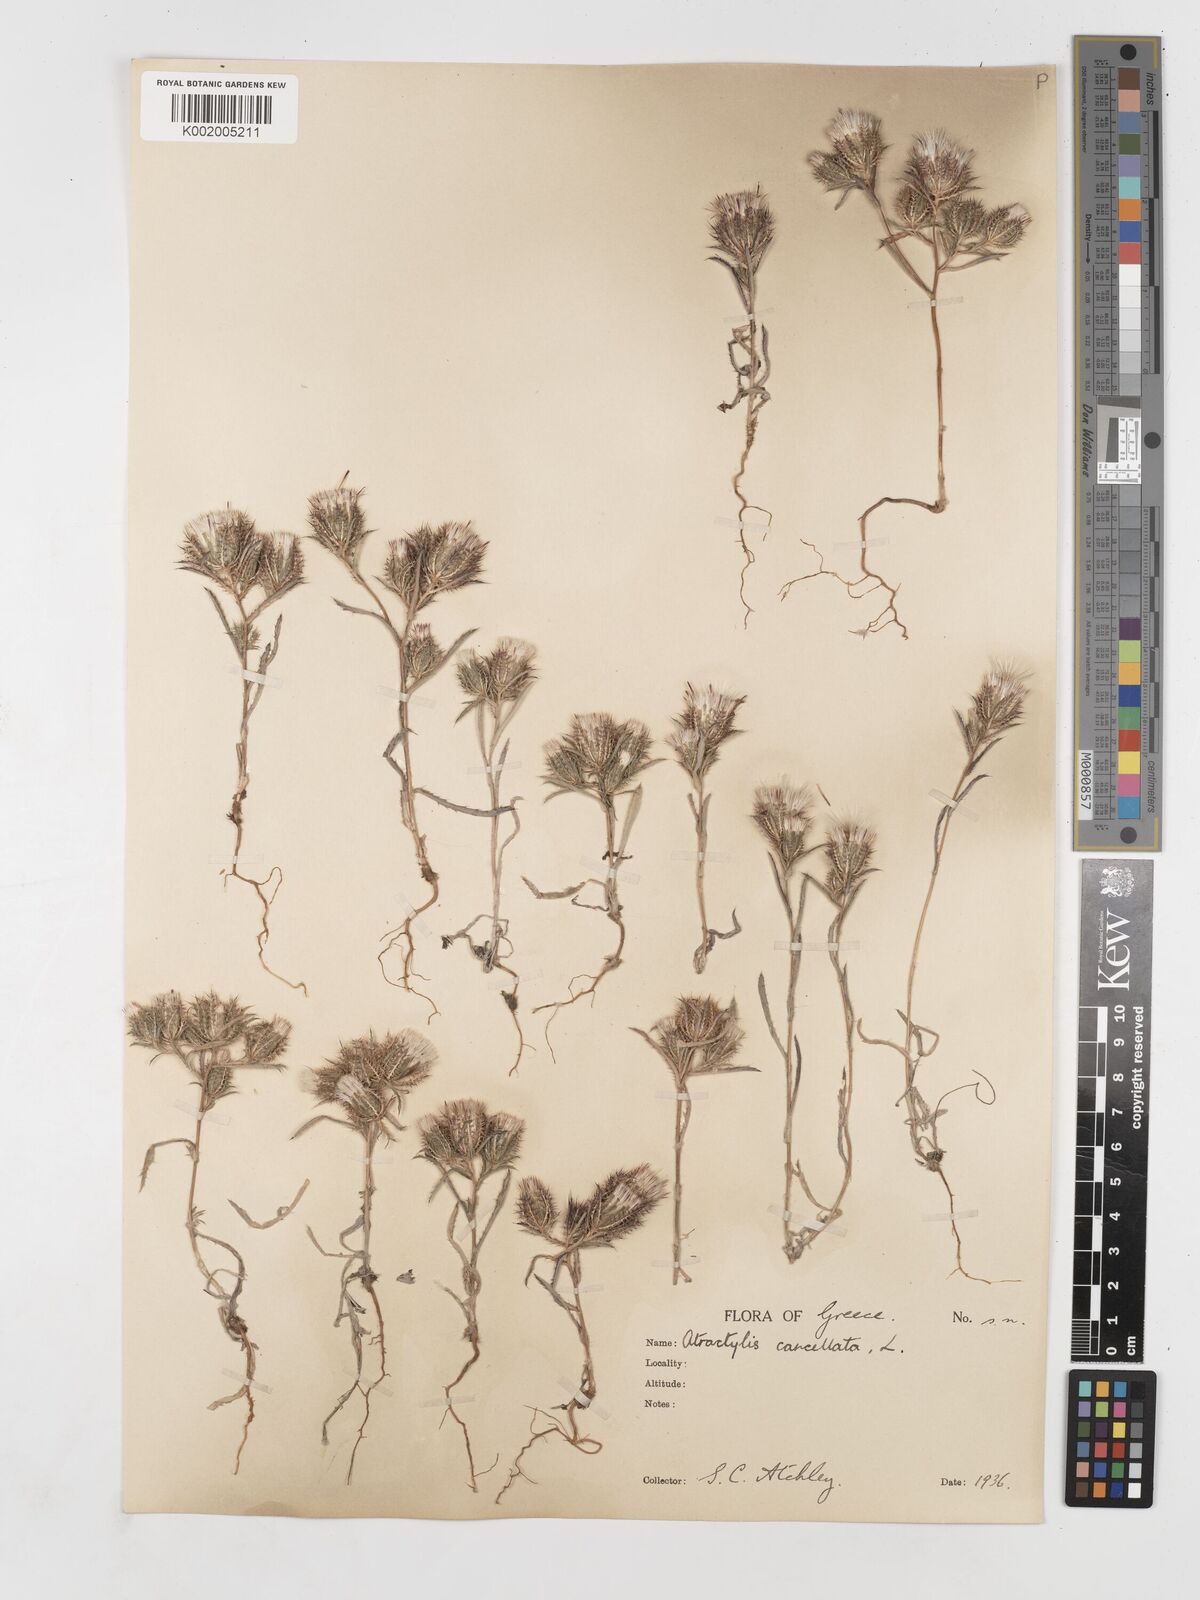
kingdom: Plantae
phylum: Tracheophyta
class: Magnoliopsida
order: Asterales
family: Asteraceae
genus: Atractylis
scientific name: Atractylis cancellata
